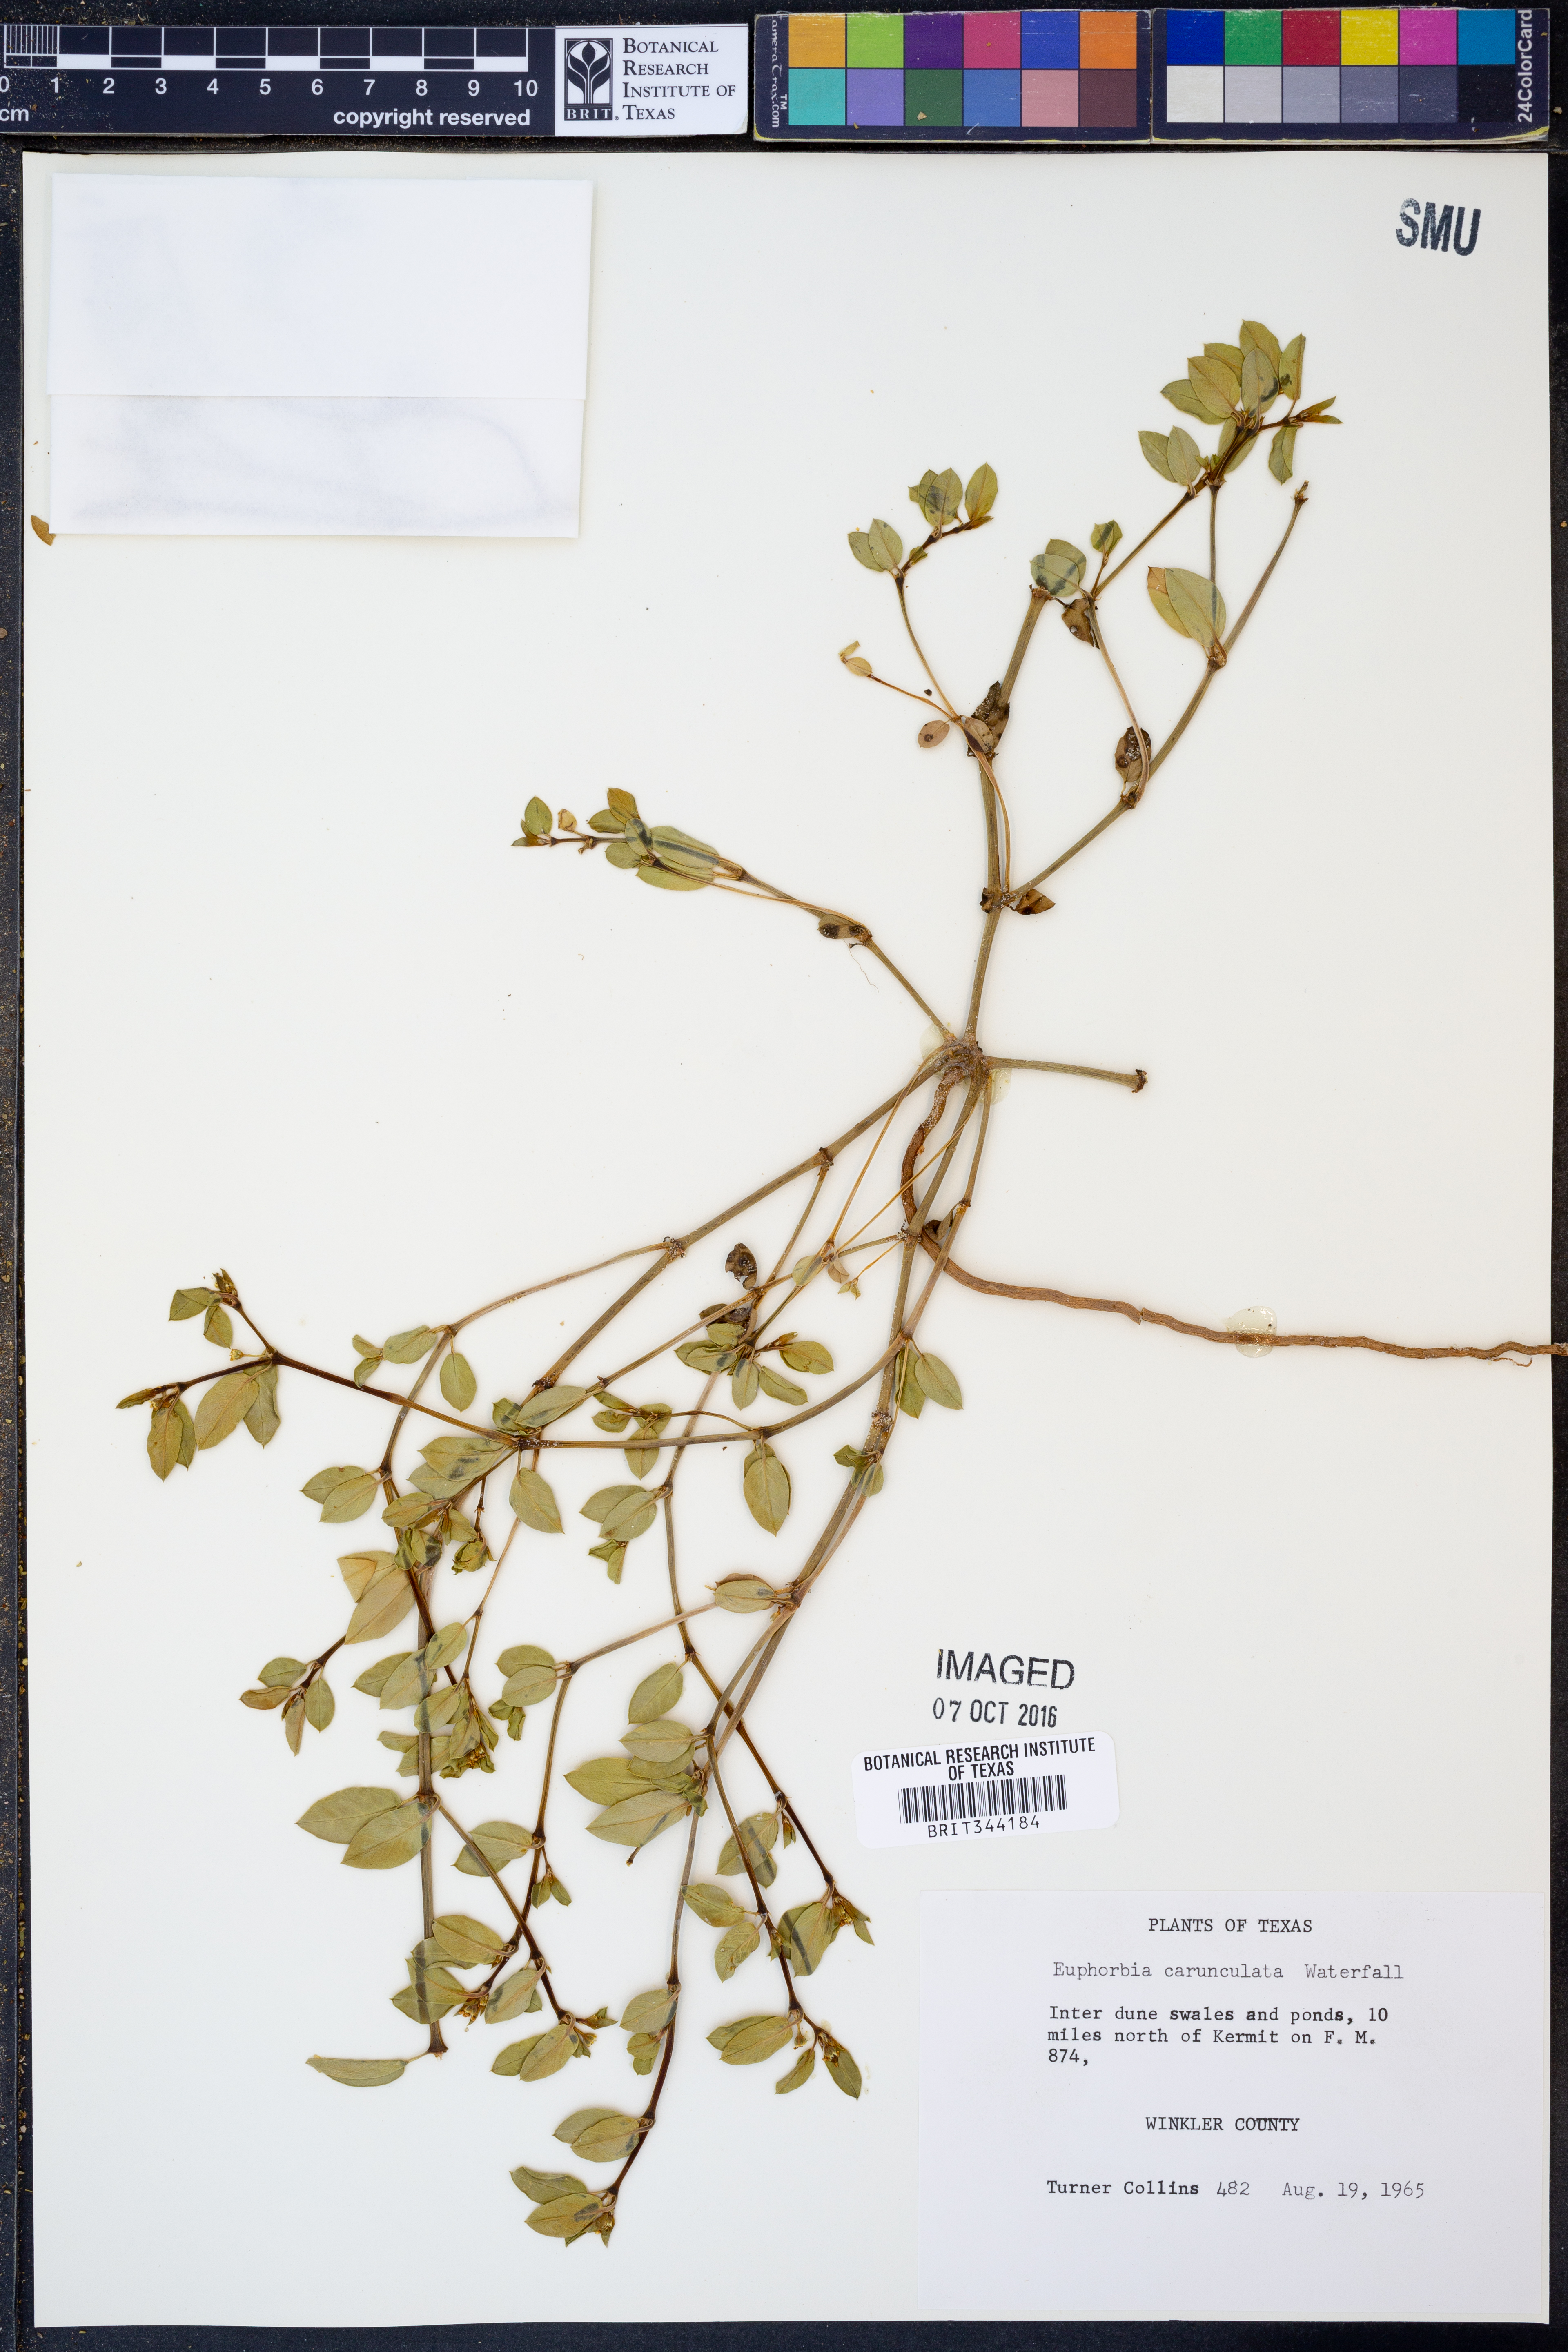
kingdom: Plantae
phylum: Tracheophyta
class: Magnoliopsida
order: Malpighiales
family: Euphorbiaceae
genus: Euphorbia
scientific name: Euphorbia carunculata
